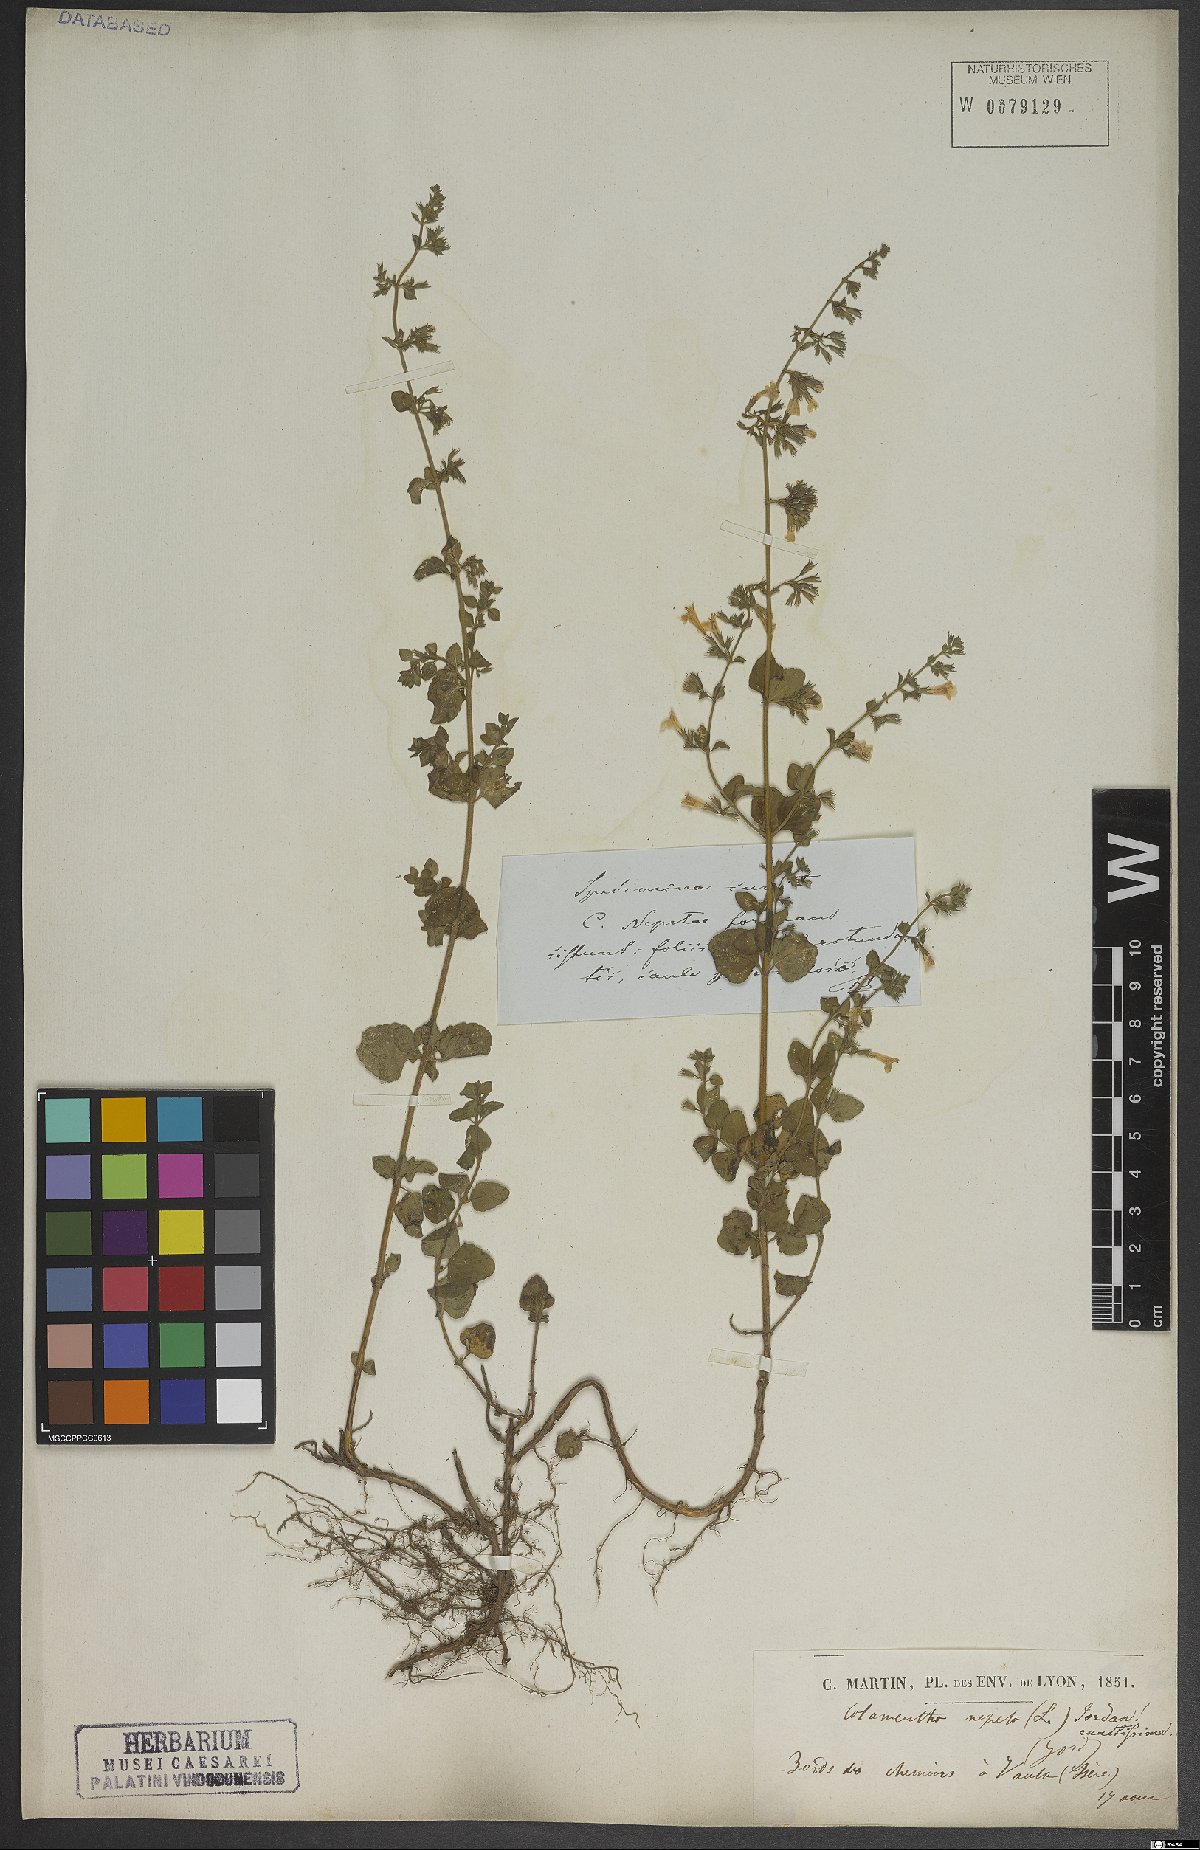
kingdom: Plantae
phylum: Tracheophyta
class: Magnoliopsida
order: Lamiales
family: Lamiaceae
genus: Clinopodium
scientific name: Clinopodium nepeta
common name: Lesser calamint
